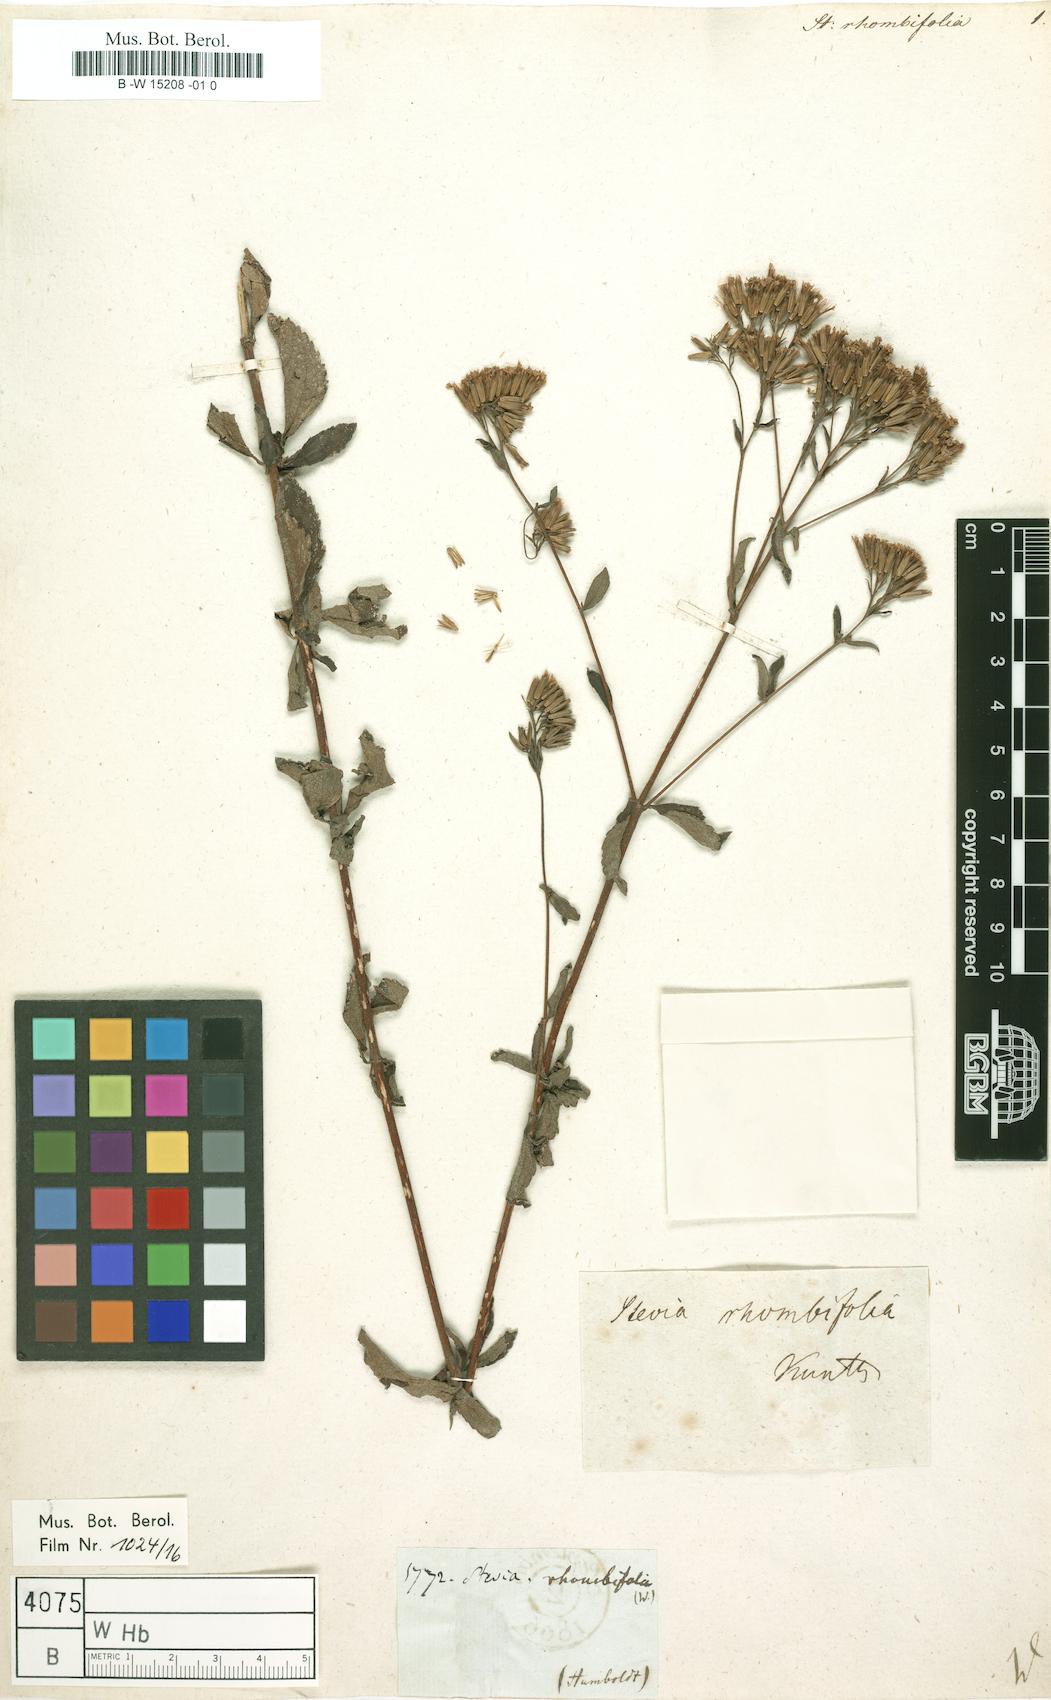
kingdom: Plantae
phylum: Tracheophyta
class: Magnoliopsida
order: Asterales
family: Asteraceae
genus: Stevia
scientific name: Stevia ovata
